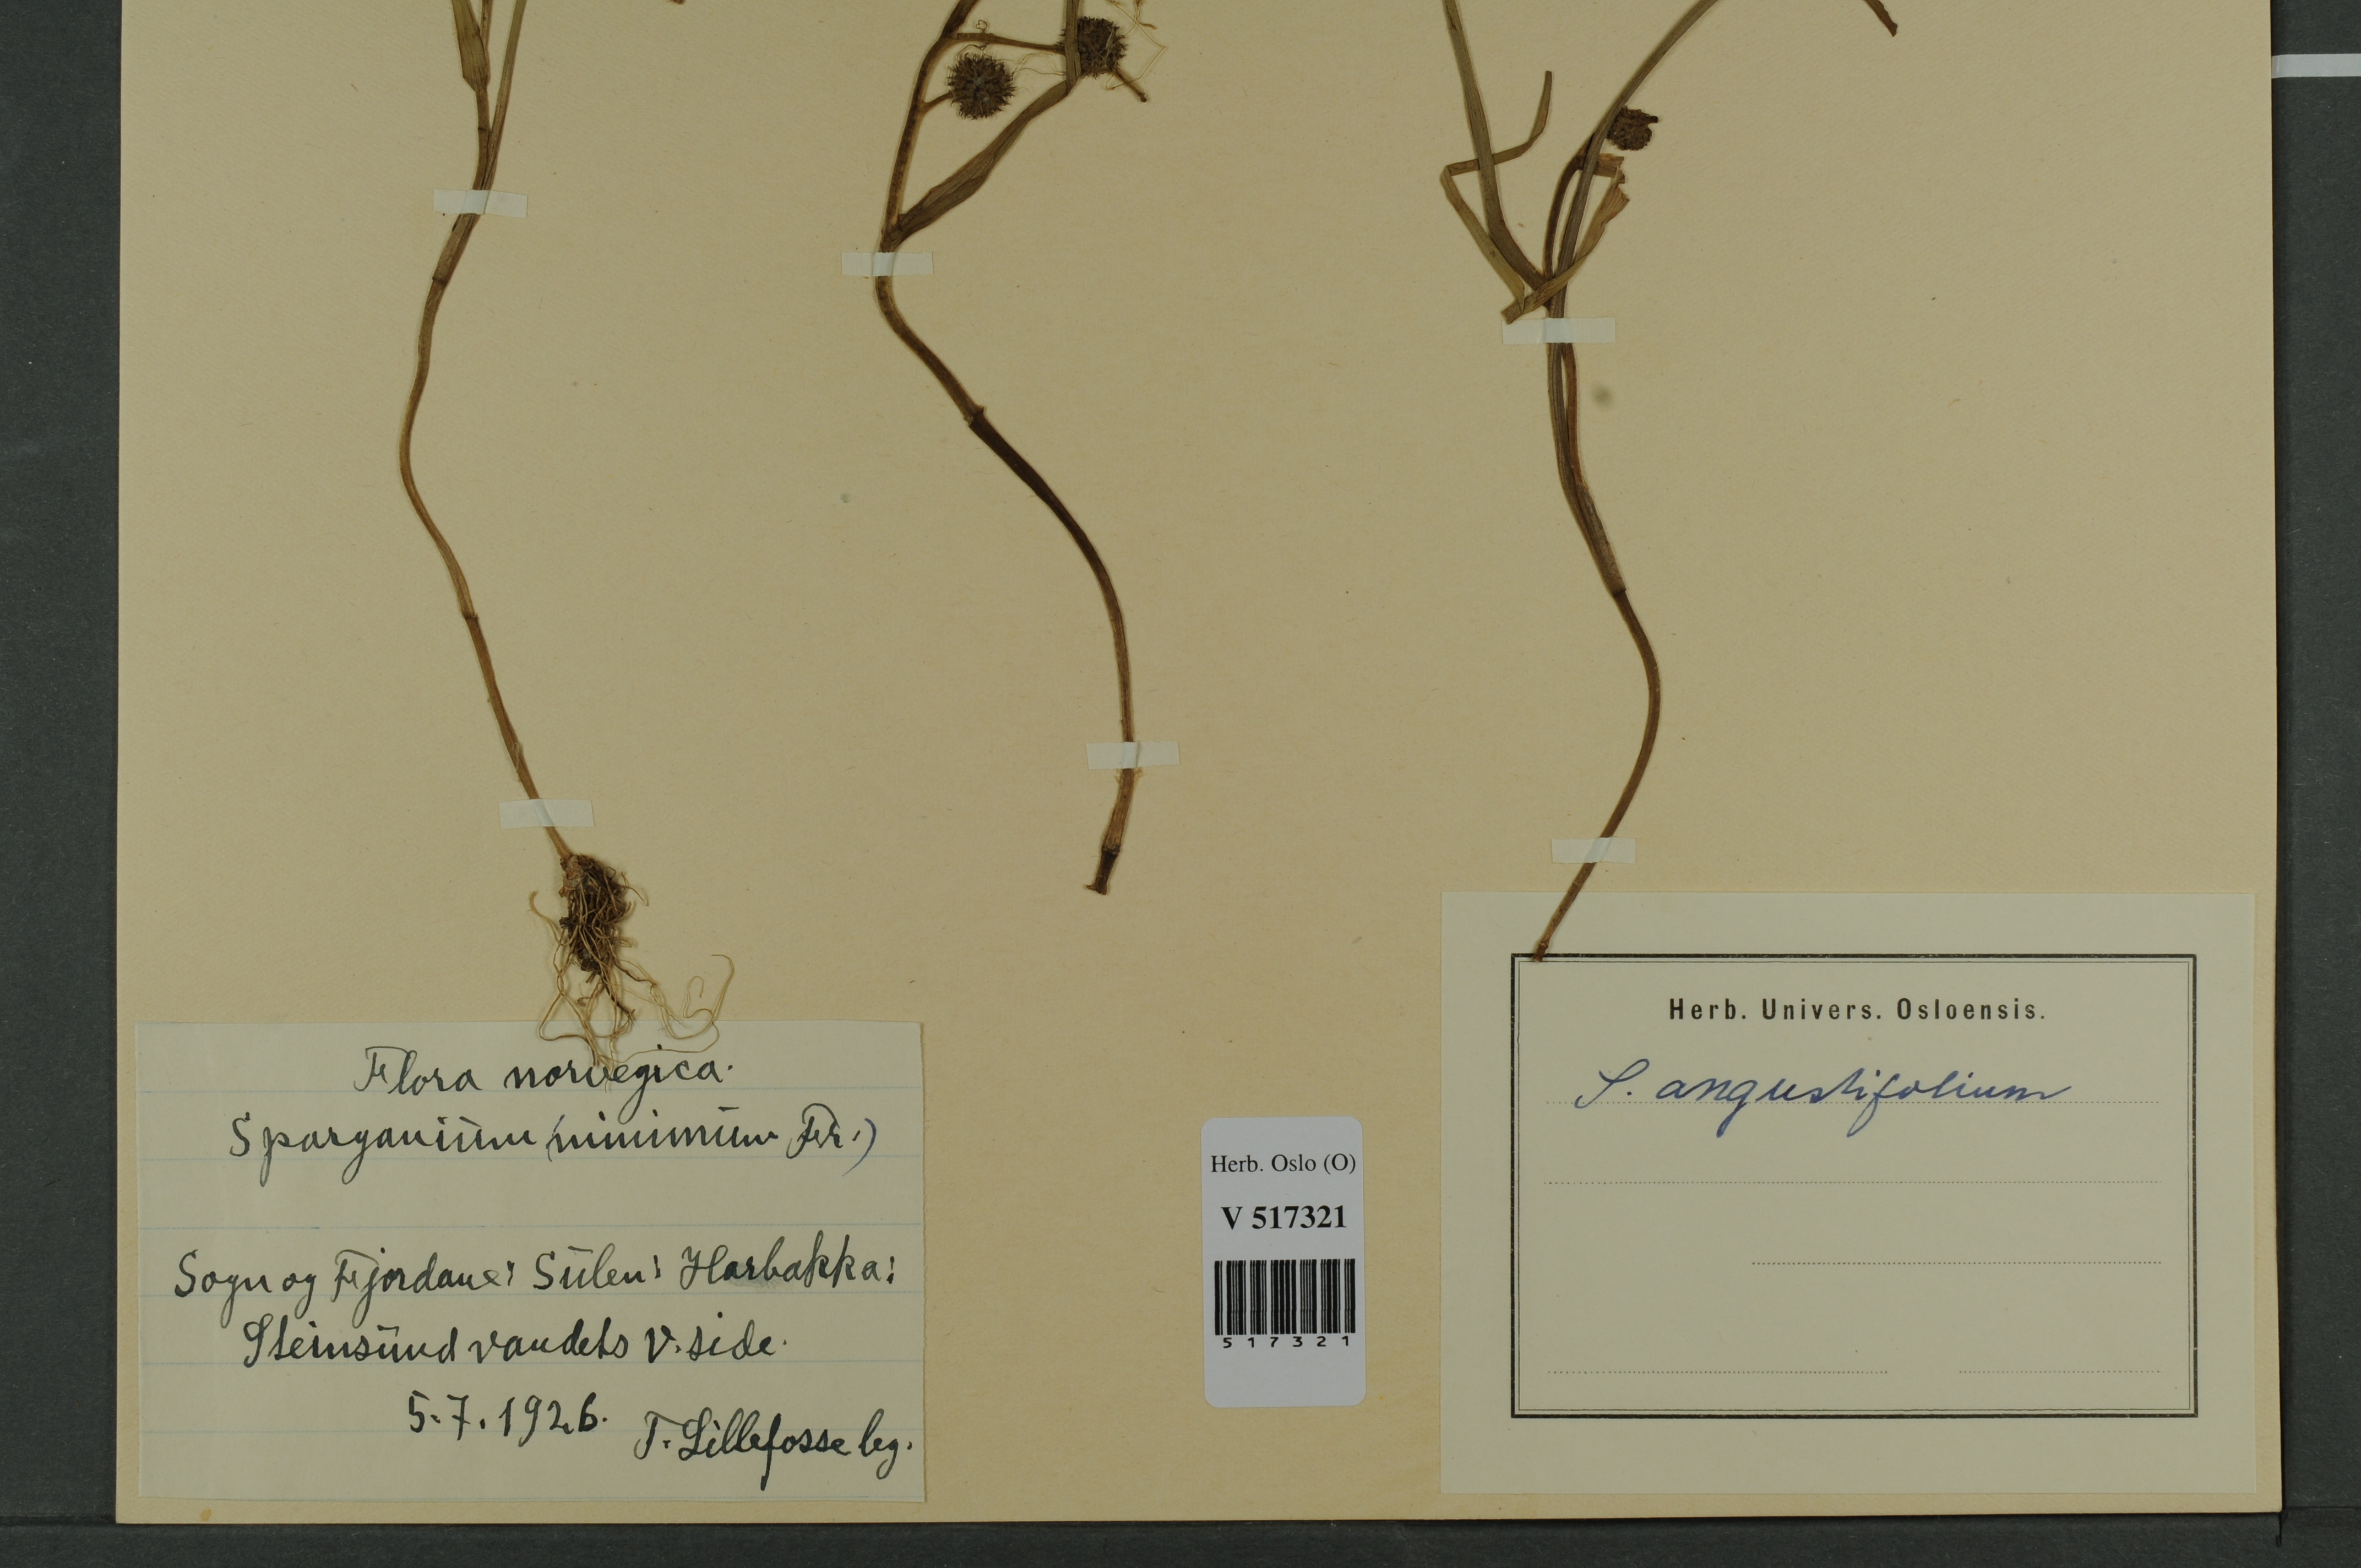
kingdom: Plantae
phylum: Tracheophyta
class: Liliopsida
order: Poales
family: Typhaceae
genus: Sparganium
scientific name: Sparganium angustifolium
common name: Floating bur-reed
